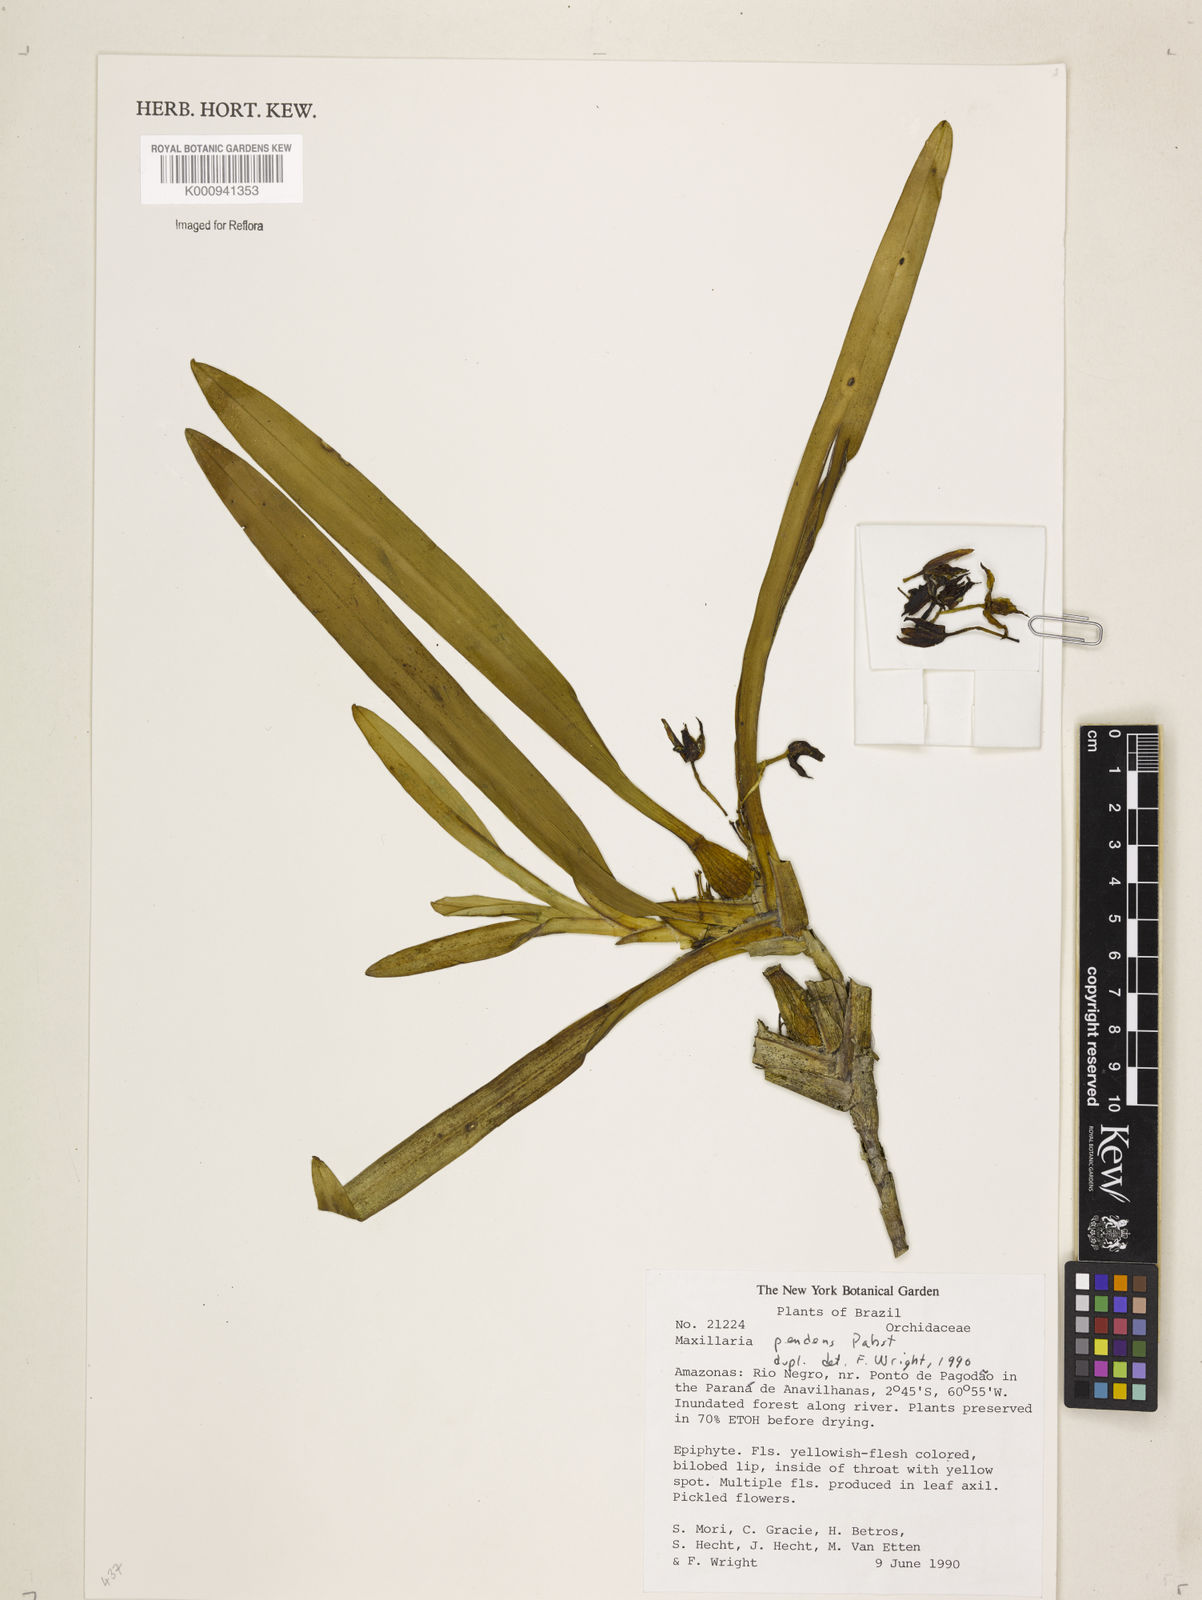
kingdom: Plantae
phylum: Tracheophyta
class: Liliopsida
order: Asparagales
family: Orchidaceae
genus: Maxillaria
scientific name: Maxillaria pendens
